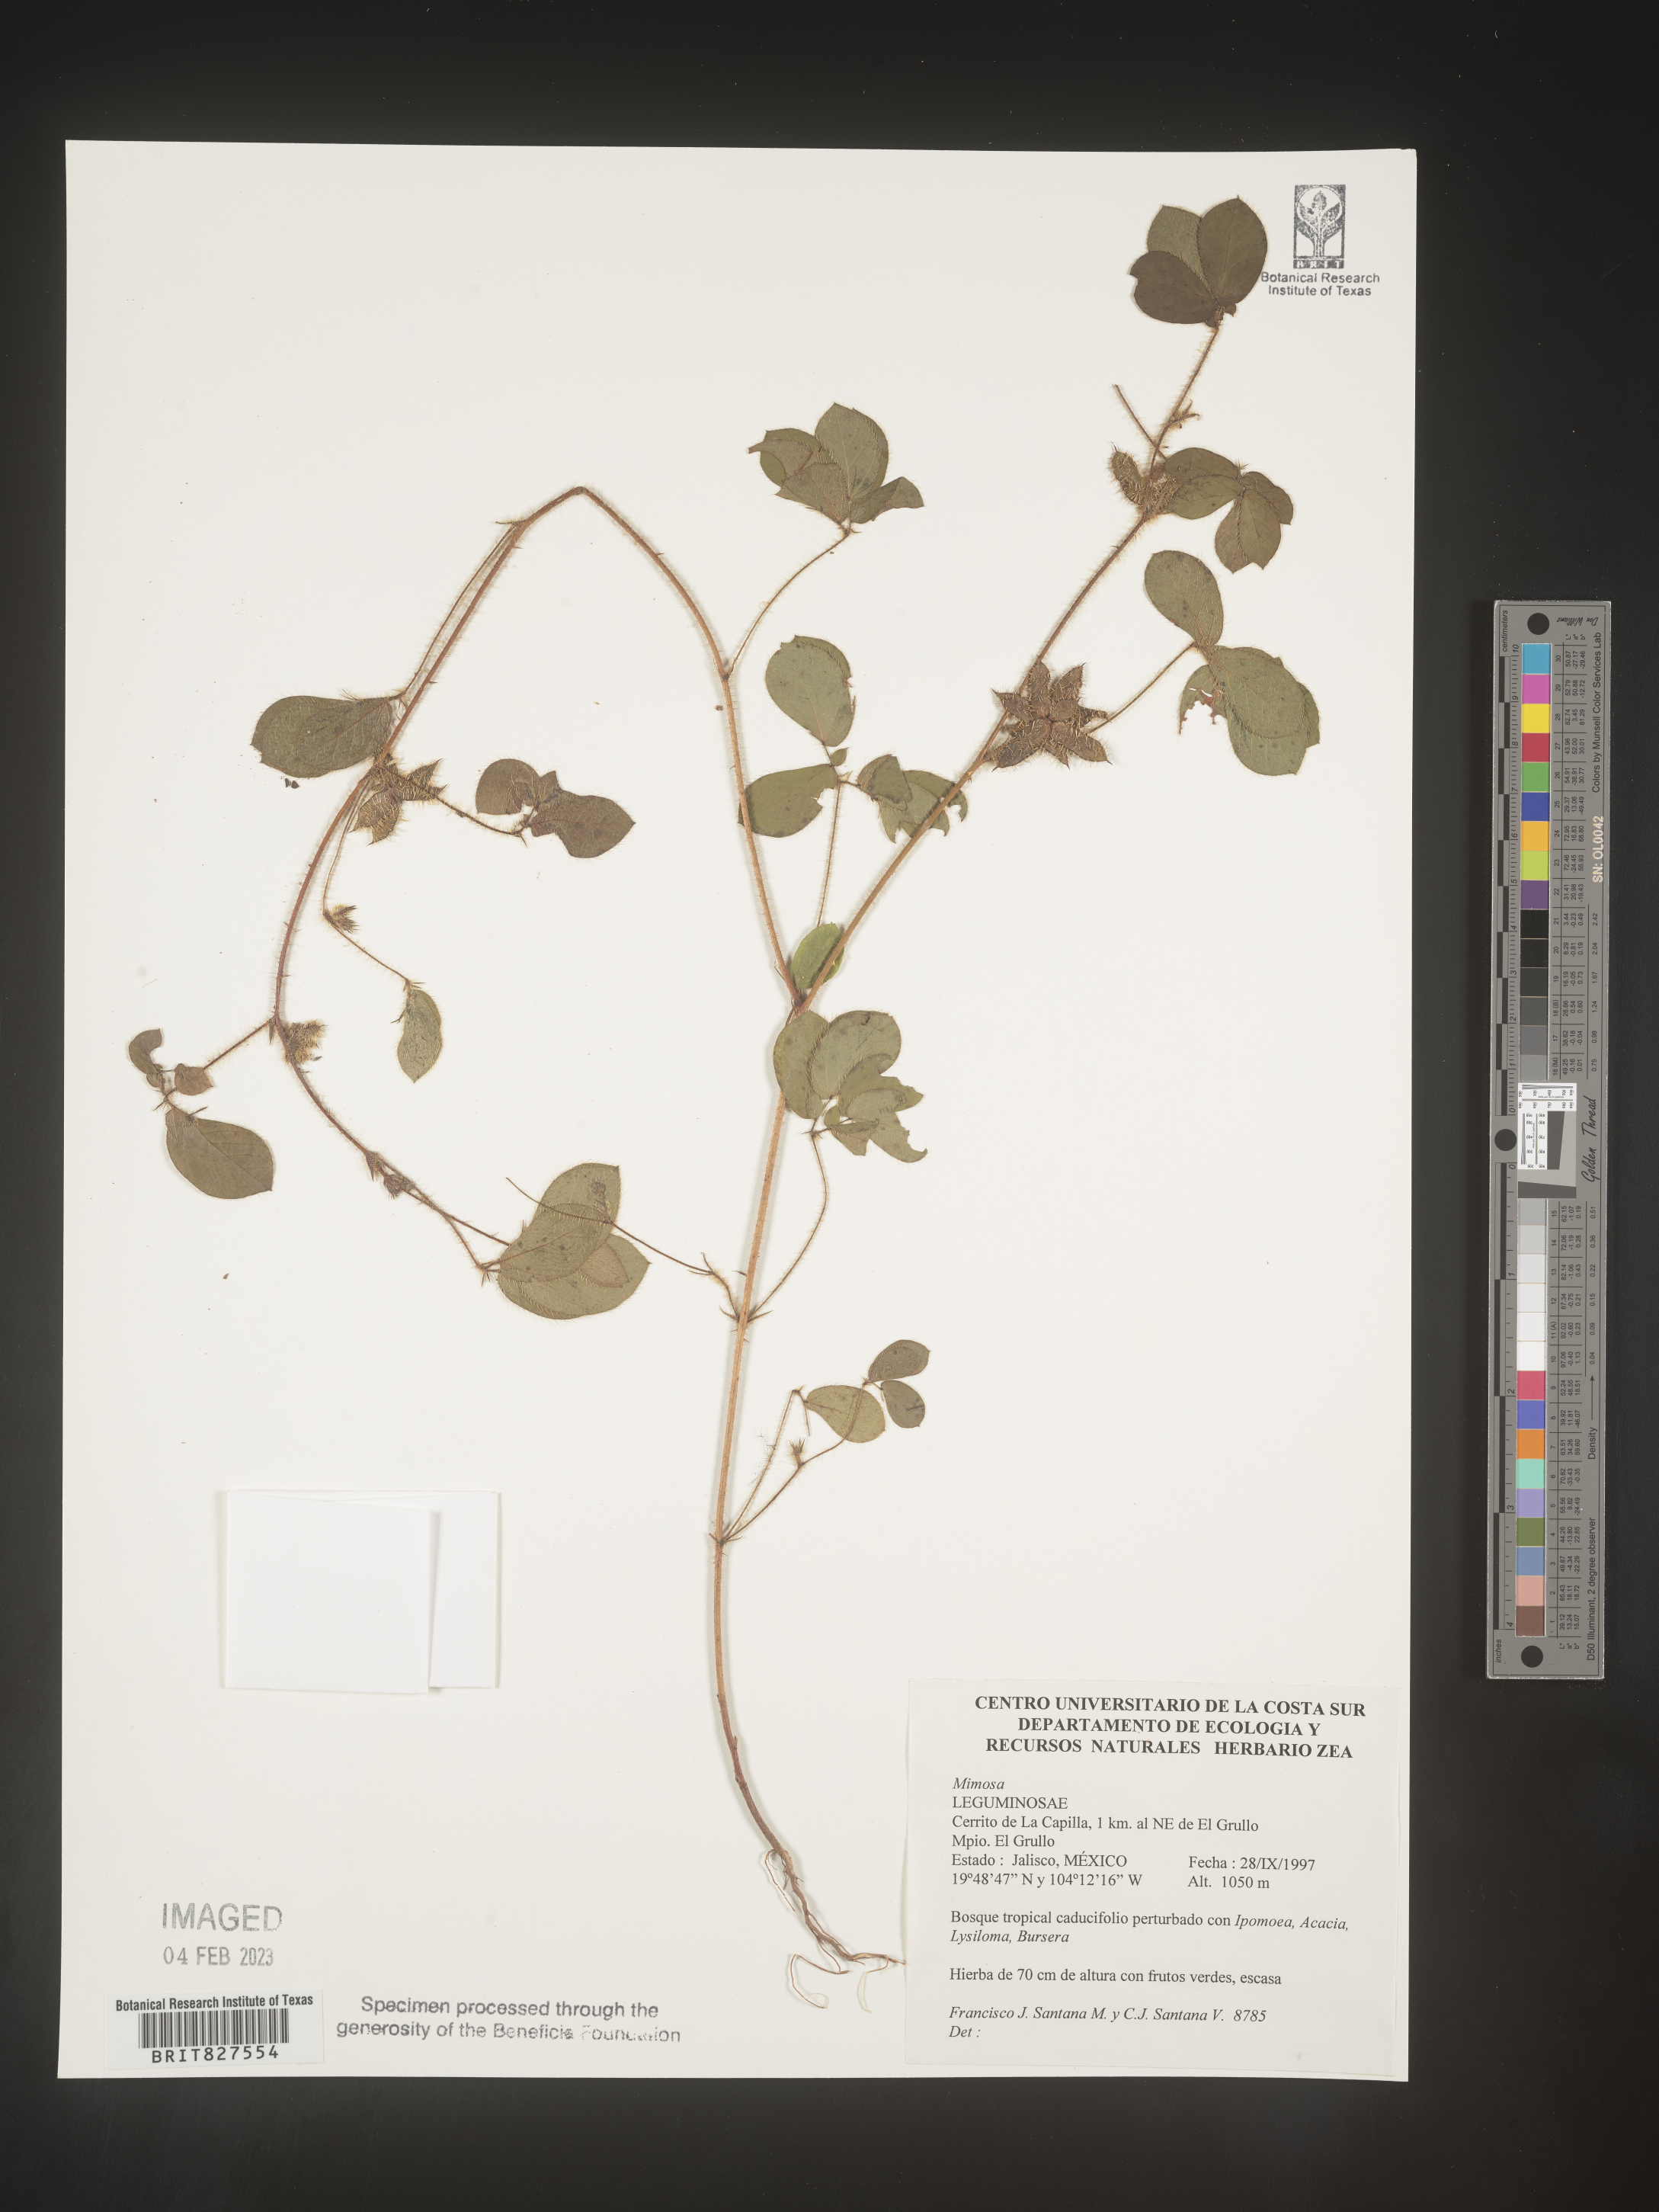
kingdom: Plantae
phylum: Tracheophyta
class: Magnoliopsida
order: Fabales
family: Fabaceae
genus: Mimosa
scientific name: Mimosa
